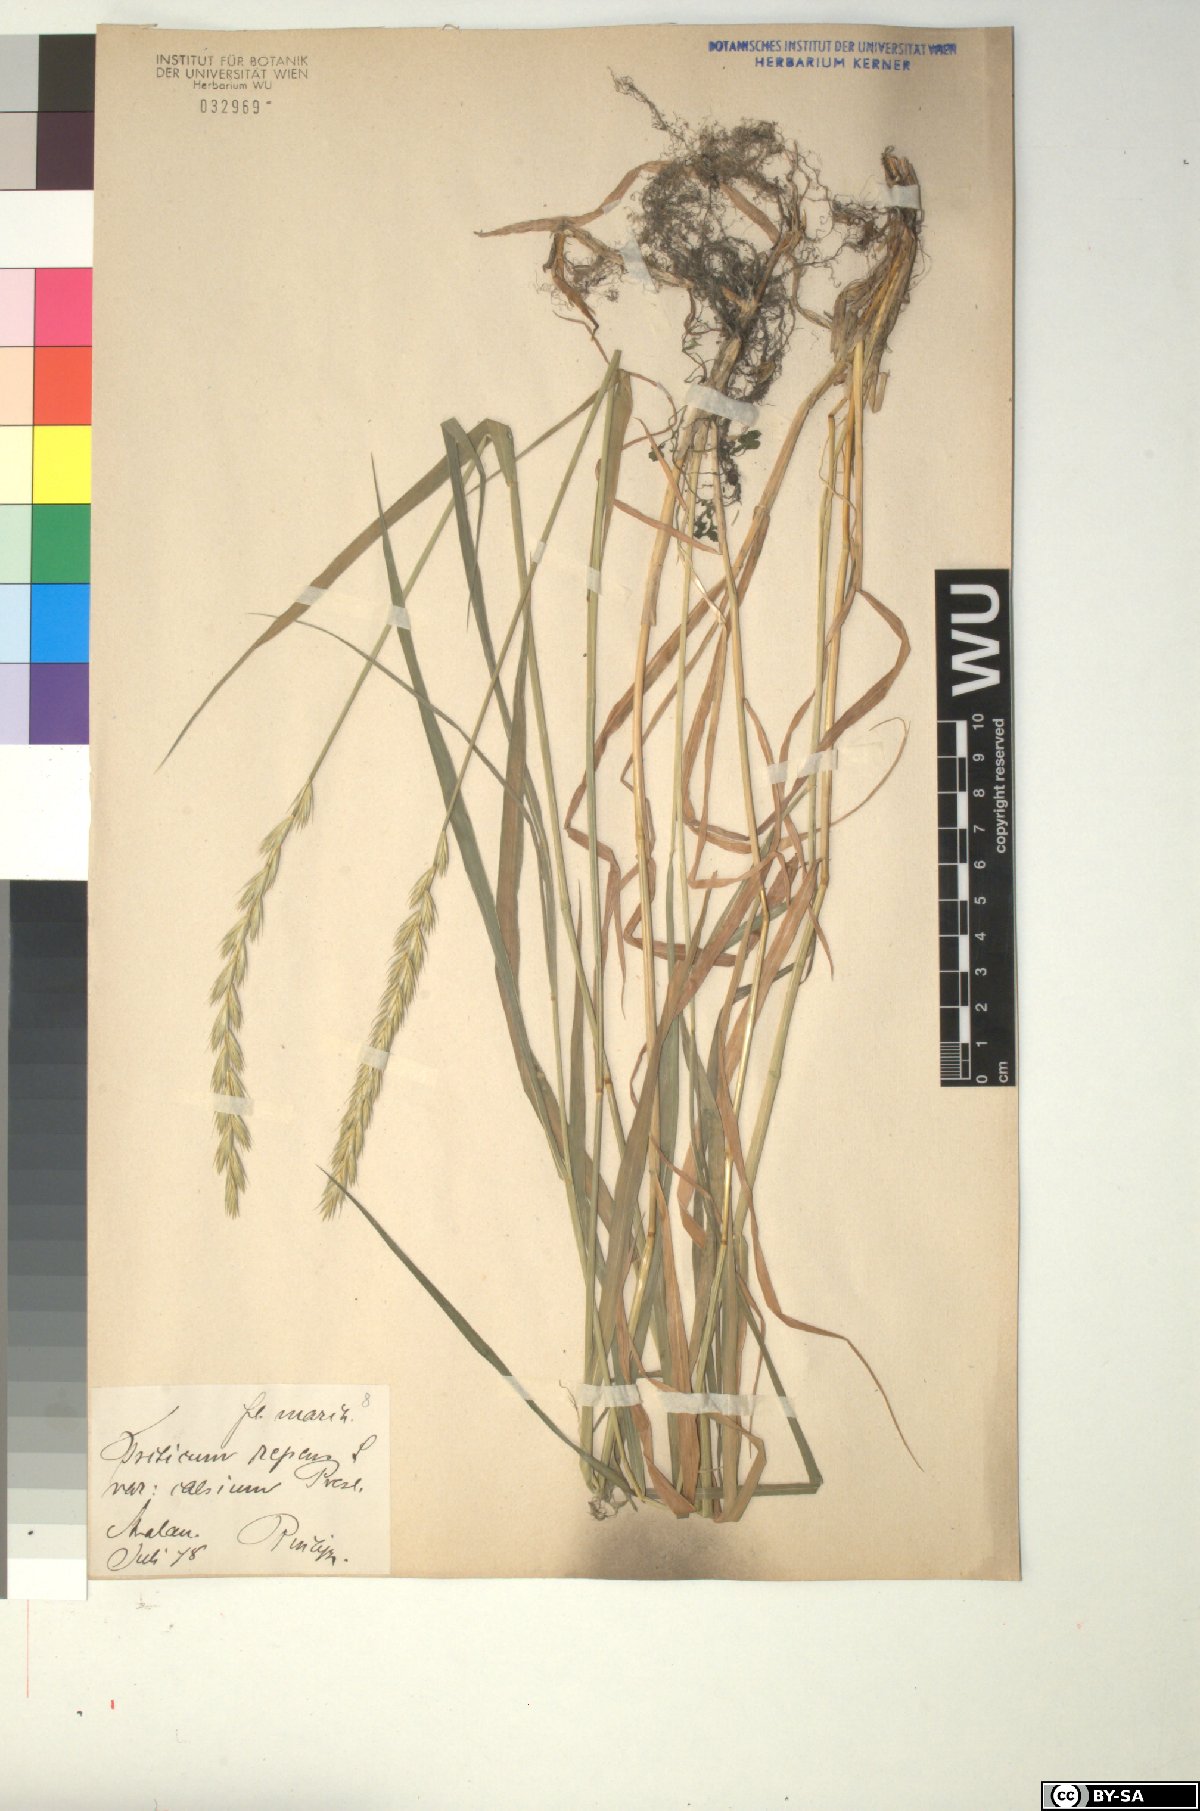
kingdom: Plantae
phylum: Tracheophyta
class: Liliopsida
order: Poales
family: Poaceae
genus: Elymus
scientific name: Elymus repens
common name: Quackgrass
